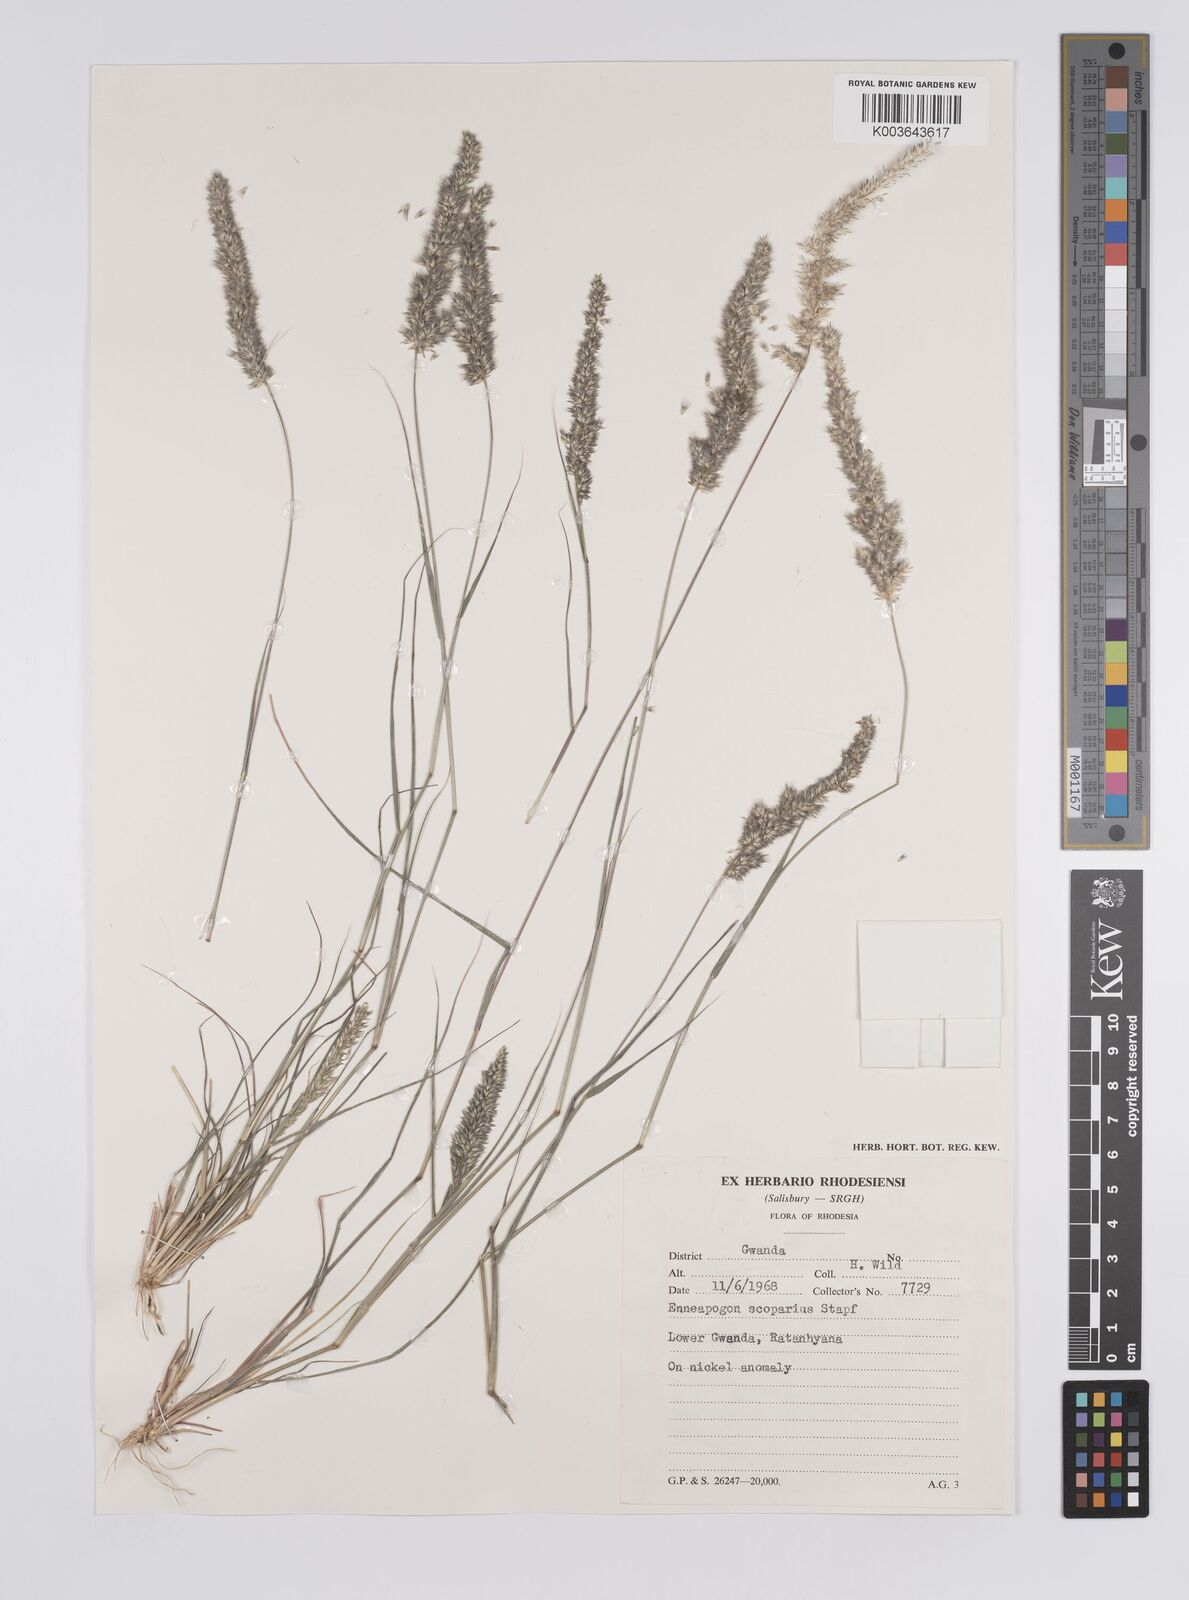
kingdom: Plantae
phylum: Tracheophyta
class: Liliopsida
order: Poales
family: Poaceae
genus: Enneapogon
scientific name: Enneapogon cenchroides
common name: Soft feather pappusgrass
